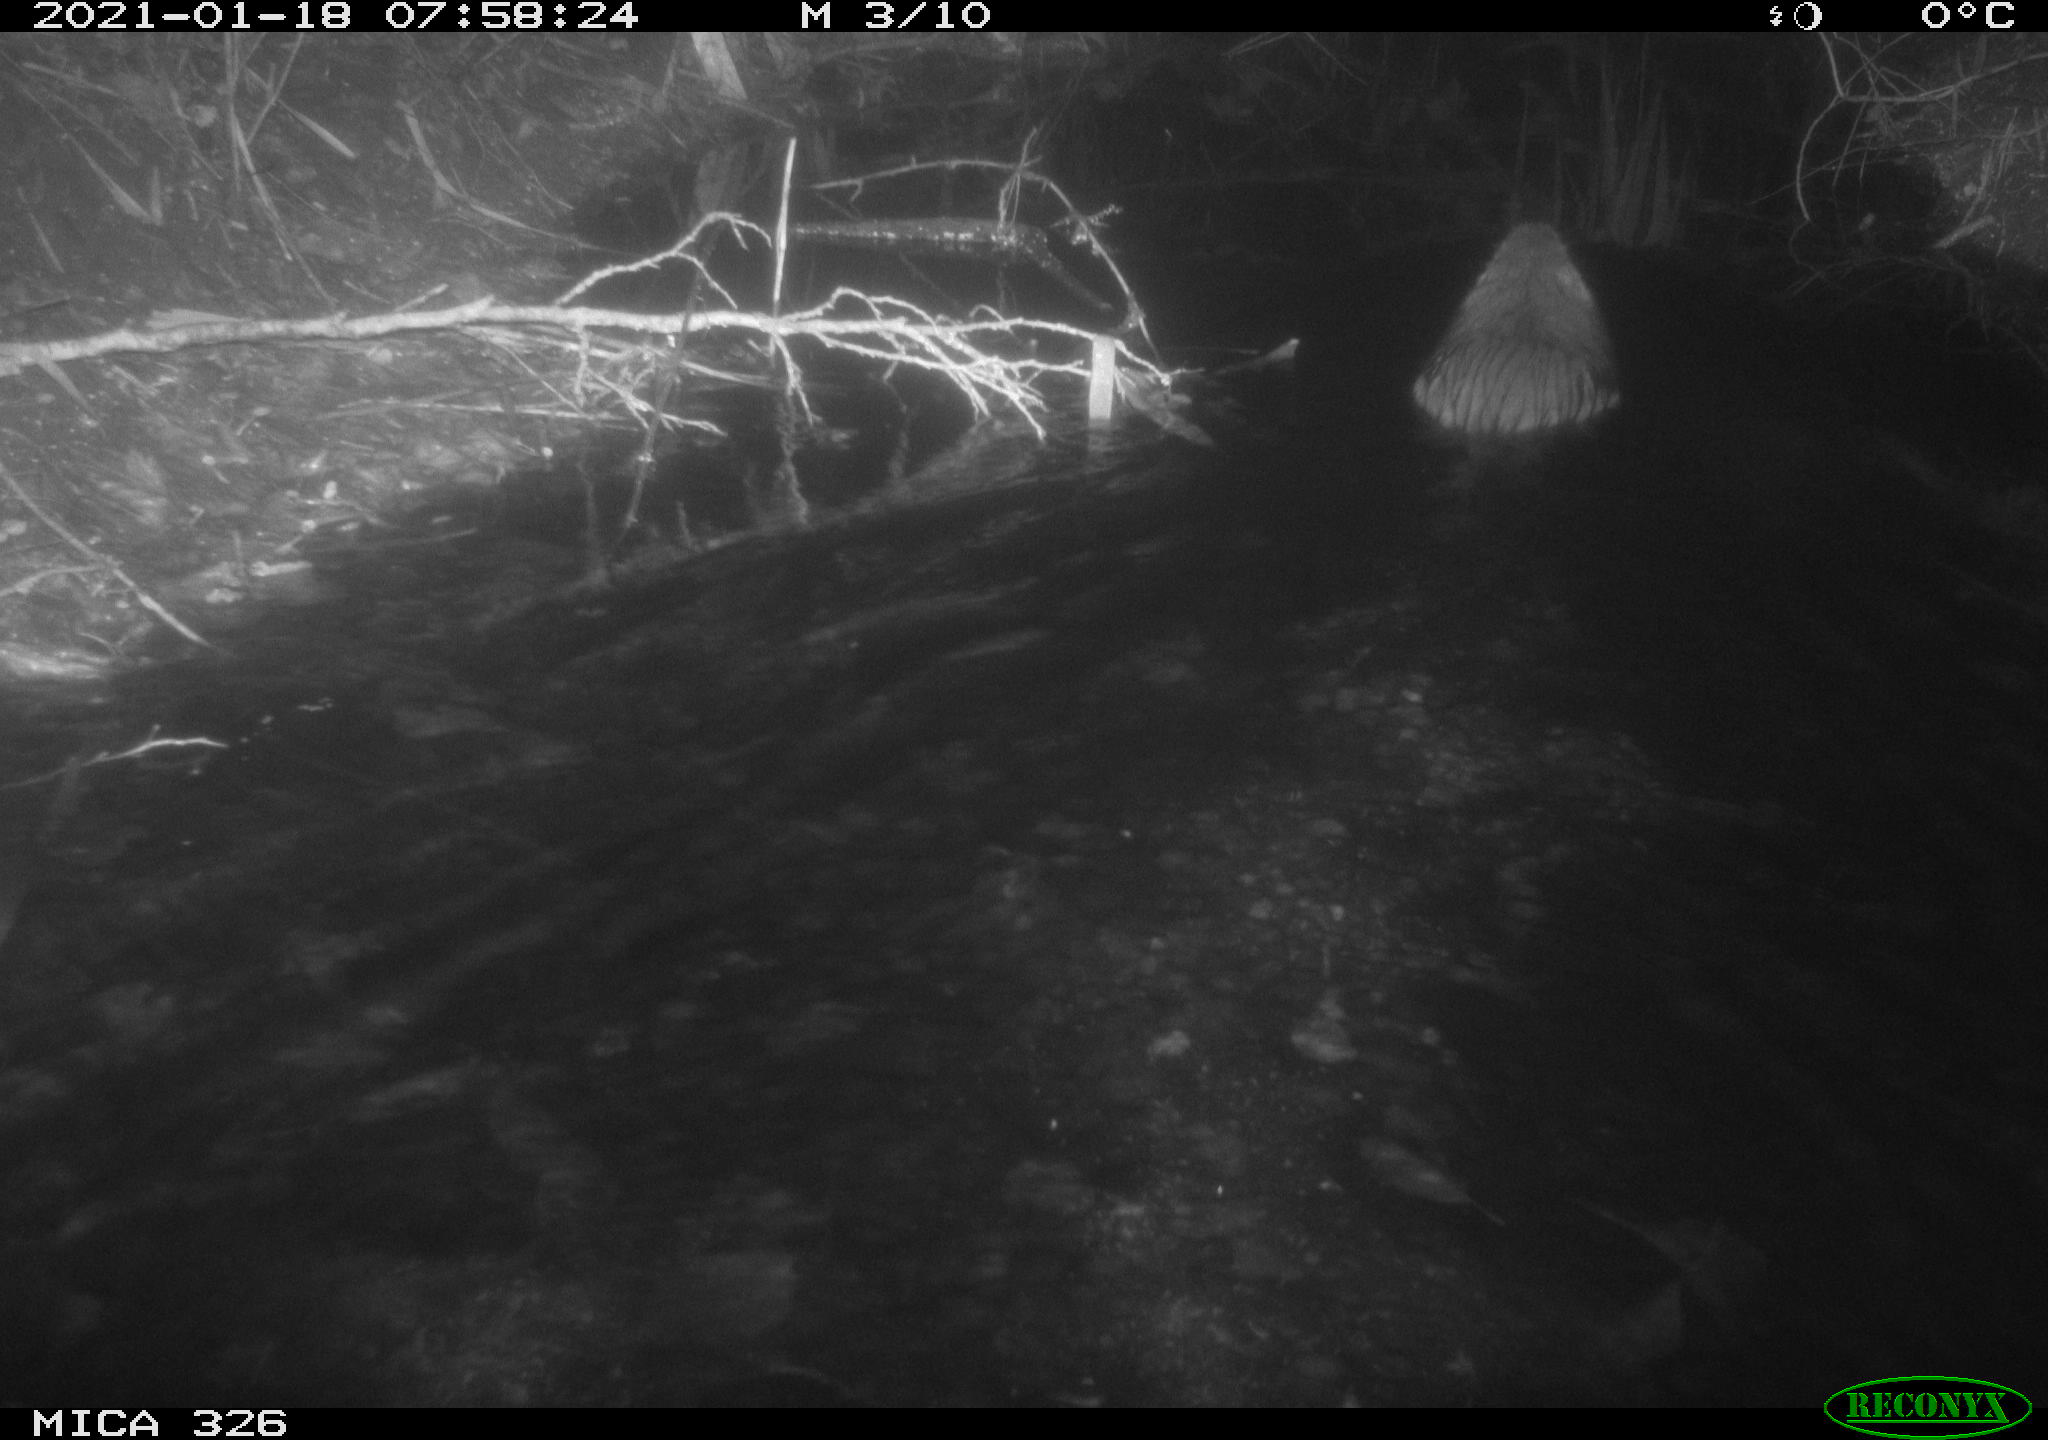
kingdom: Animalia
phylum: Chordata
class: Mammalia
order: Rodentia
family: Myocastoridae
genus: Myocastor
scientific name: Myocastor coypus
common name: Coypu
